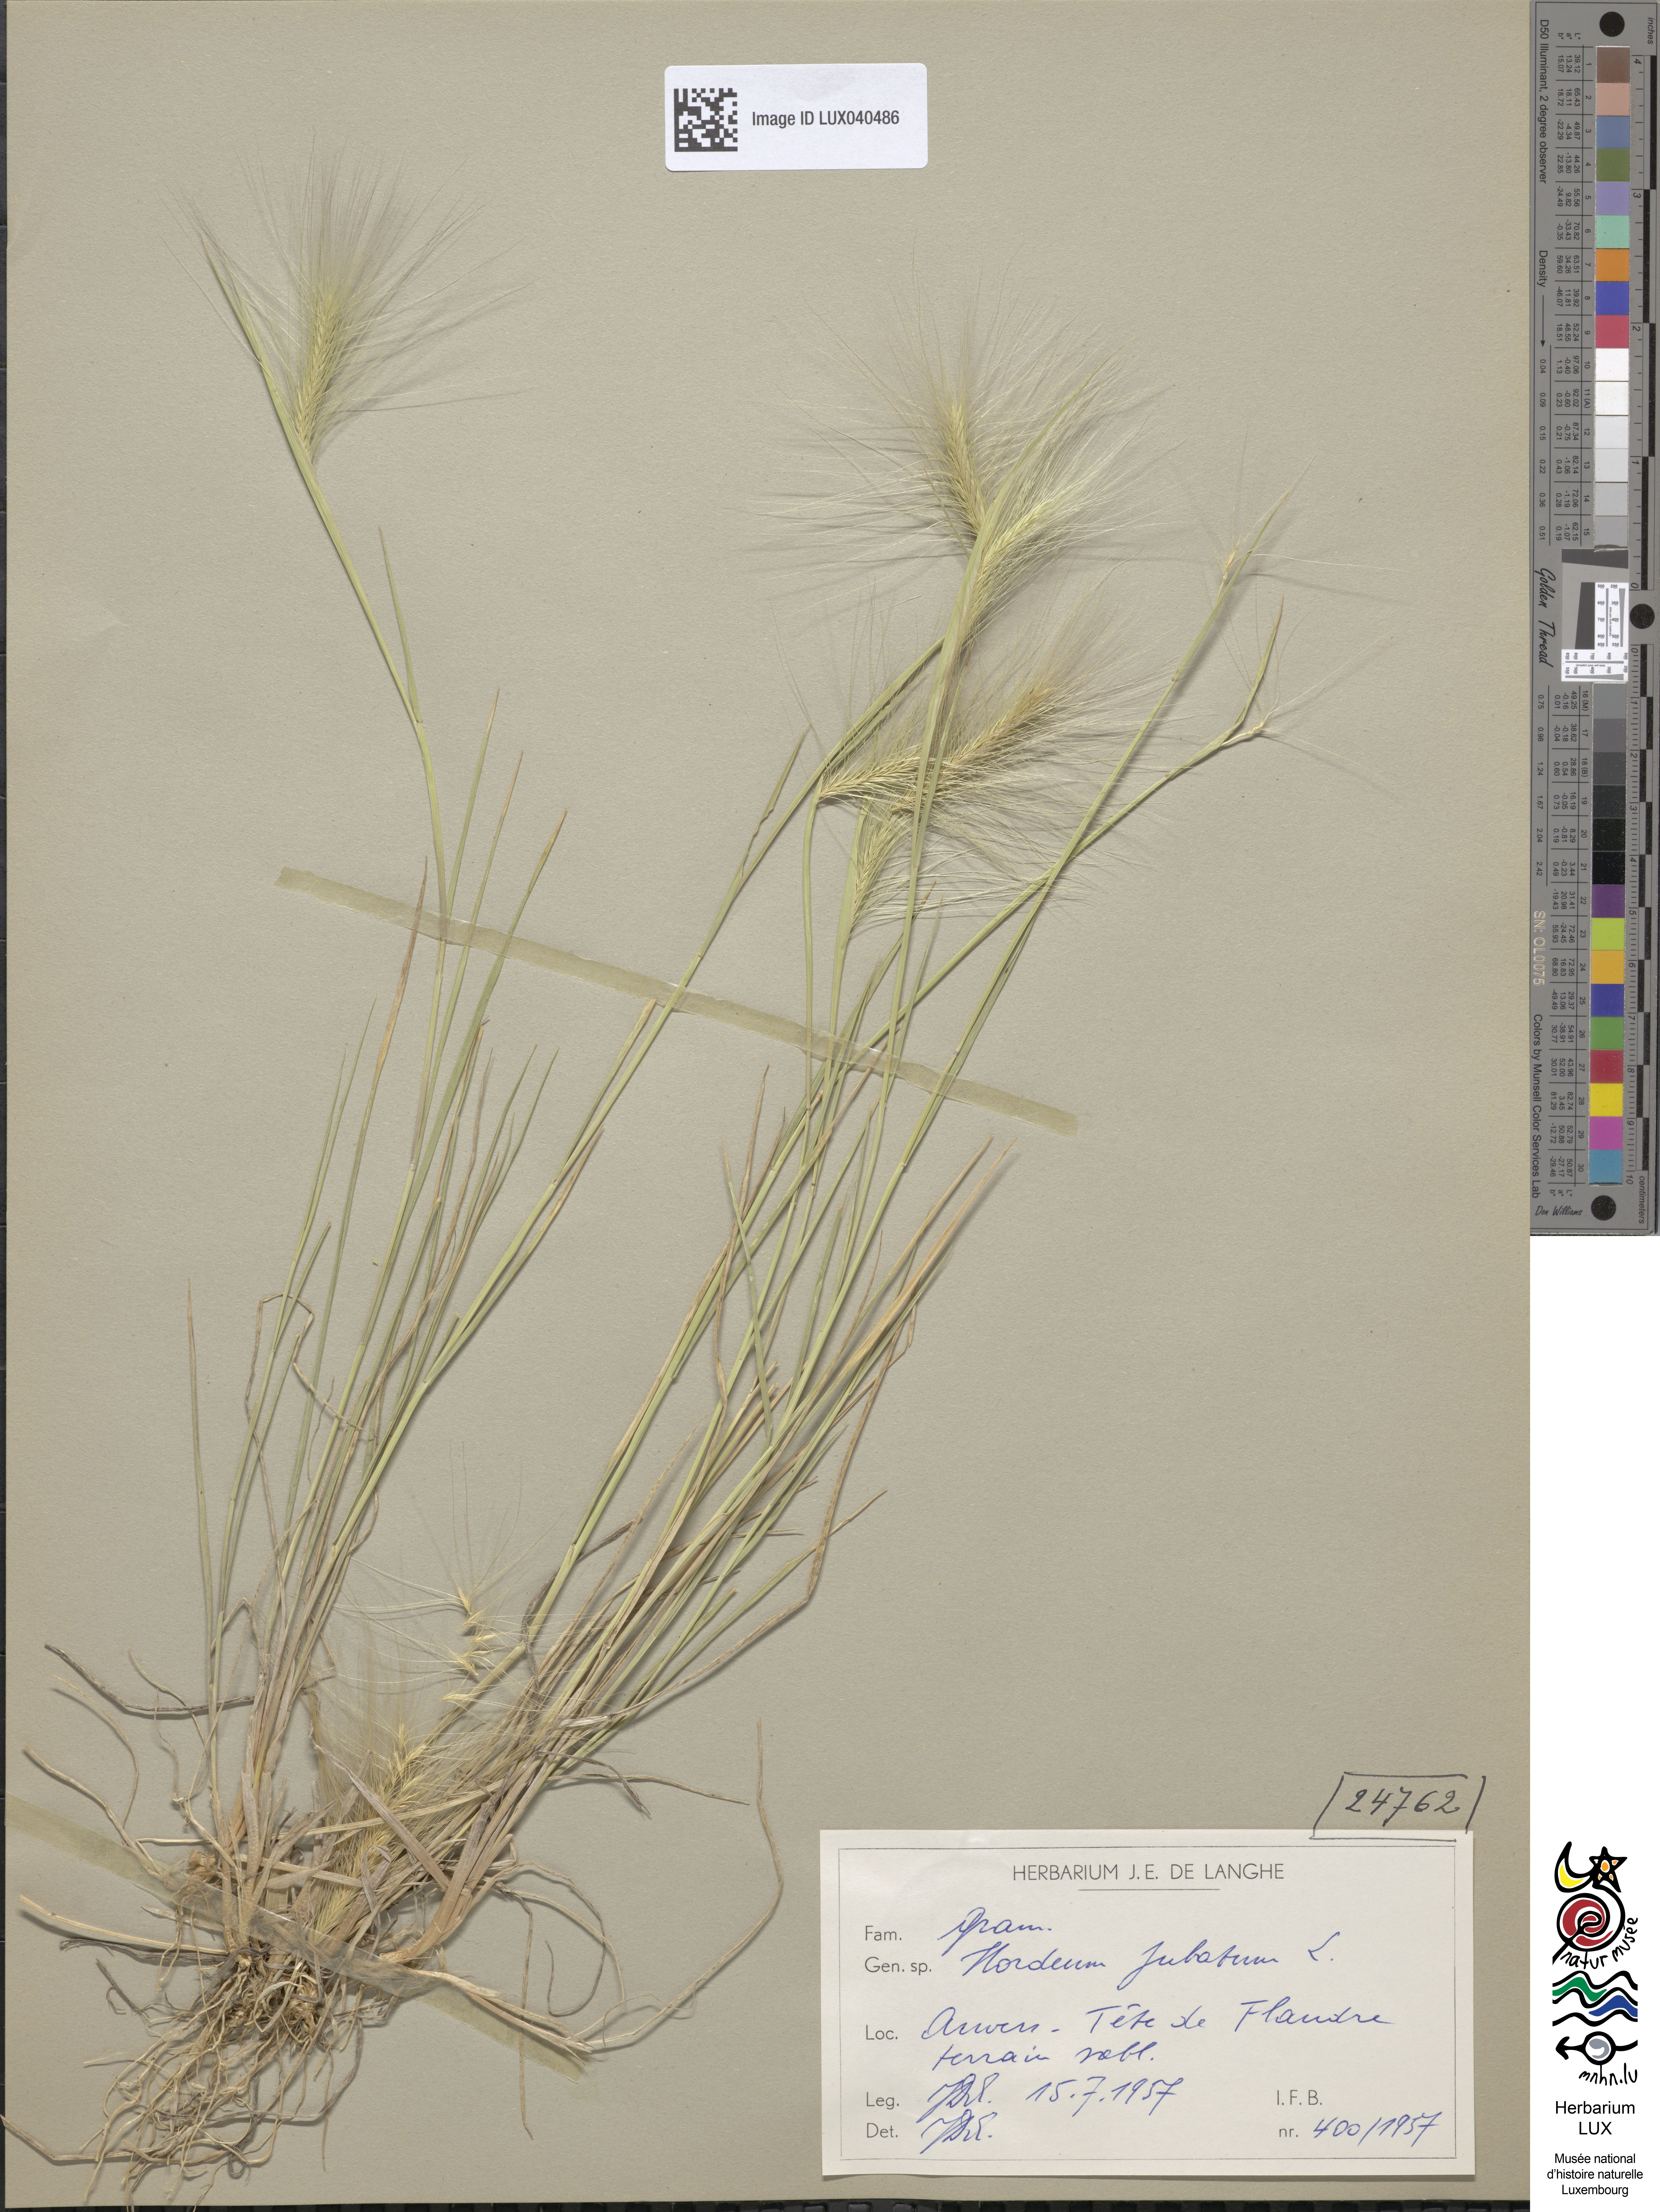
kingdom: Plantae
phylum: Tracheophyta
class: Liliopsida
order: Poales
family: Poaceae
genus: Hordeum
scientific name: Hordeum jubatum
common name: Foxtail barley
